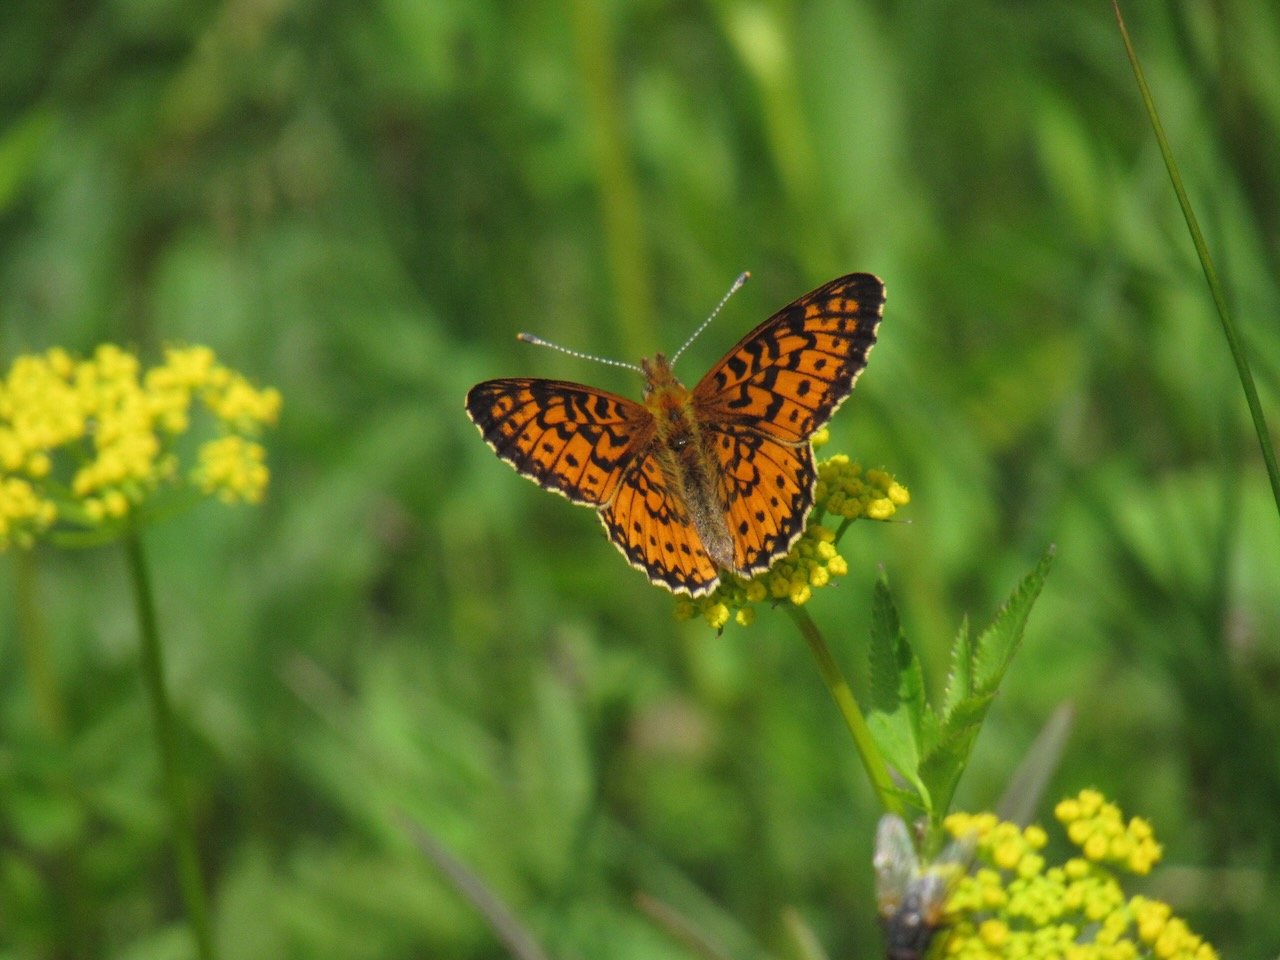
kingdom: Animalia
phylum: Arthropoda
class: Insecta
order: Lepidoptera
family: Nymphalidae
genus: Boloria
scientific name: Boloria selene
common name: Silver-bordered Fritillary
